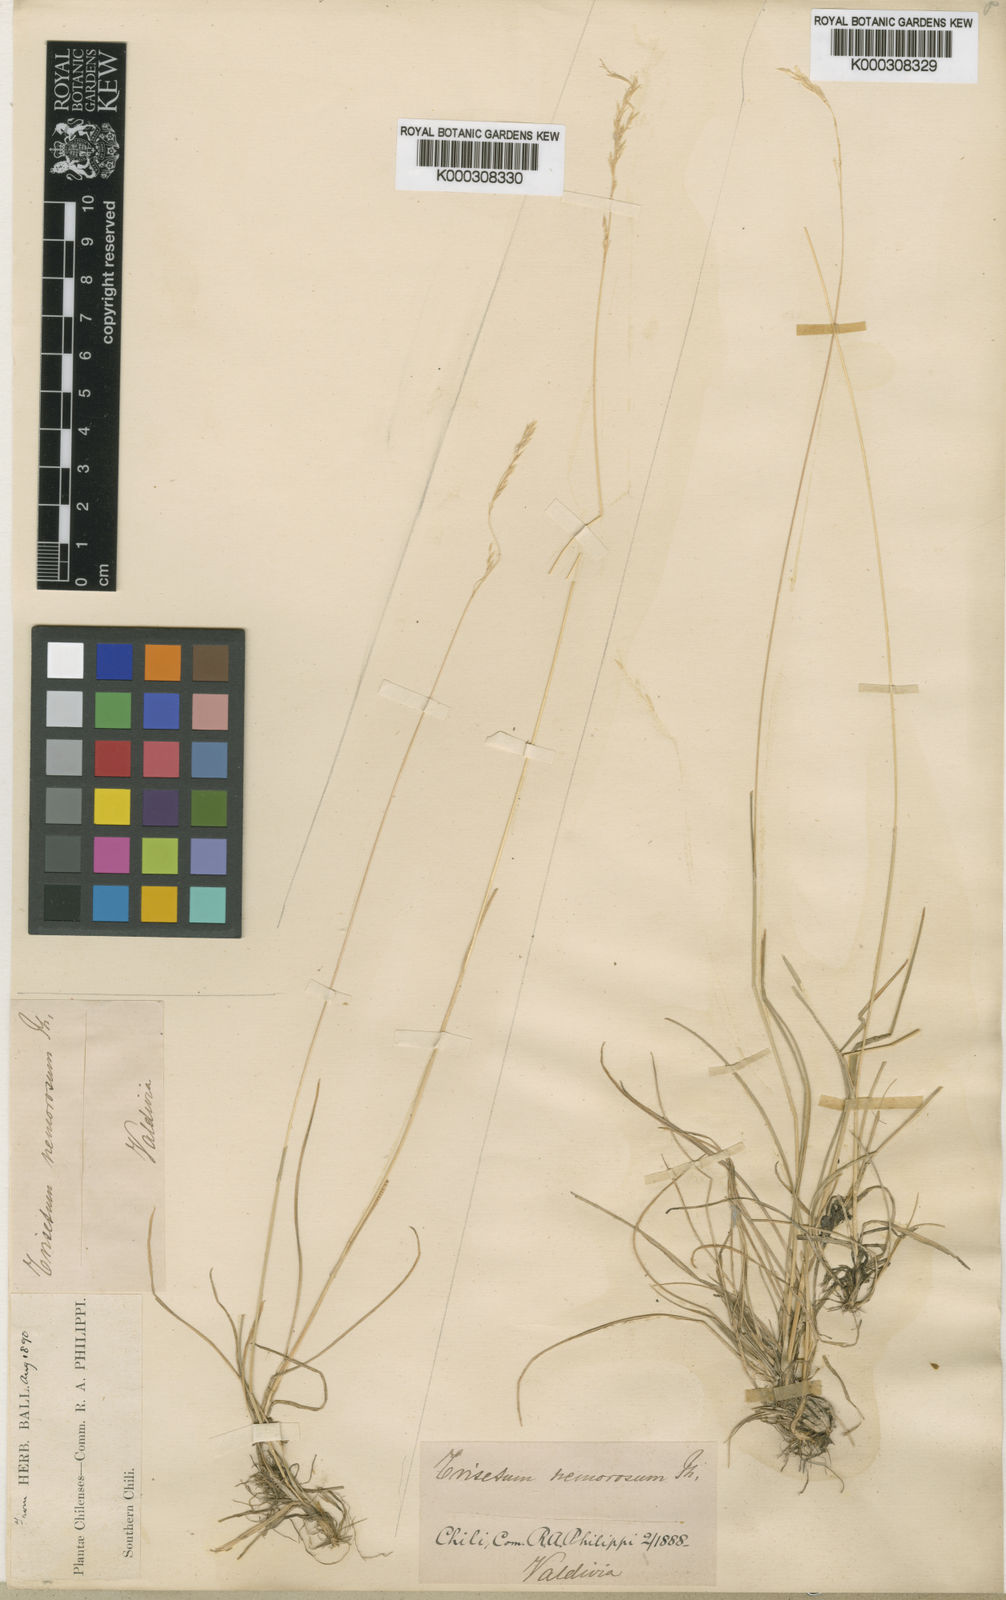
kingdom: Plantae
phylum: Tracheophyta
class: Liliopsida
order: Poales
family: Poaceae
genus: Cinnagrostis
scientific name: Cinnagrostis micrathera
